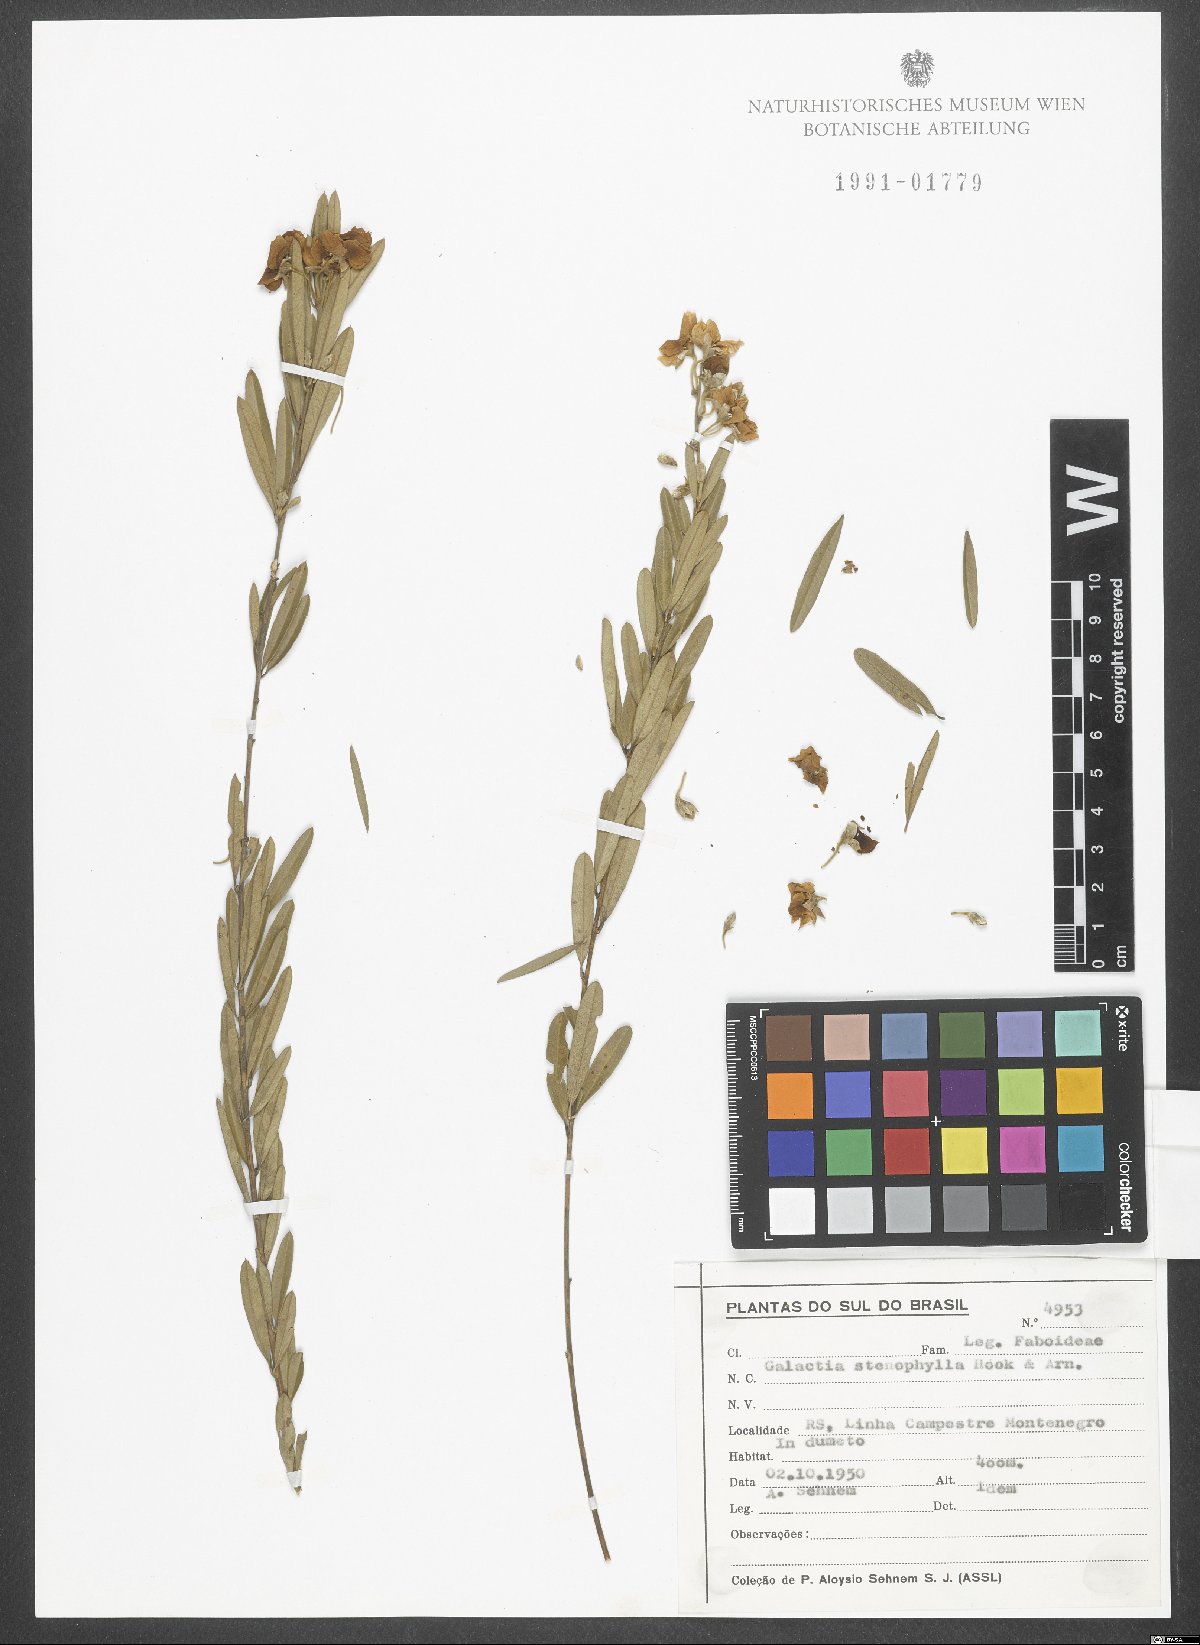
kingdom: Plantae
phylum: Tracheophyta
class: Magnoliopsida
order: Fabales
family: Fabaceae
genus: Collaea
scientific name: Collaea stenophylla
